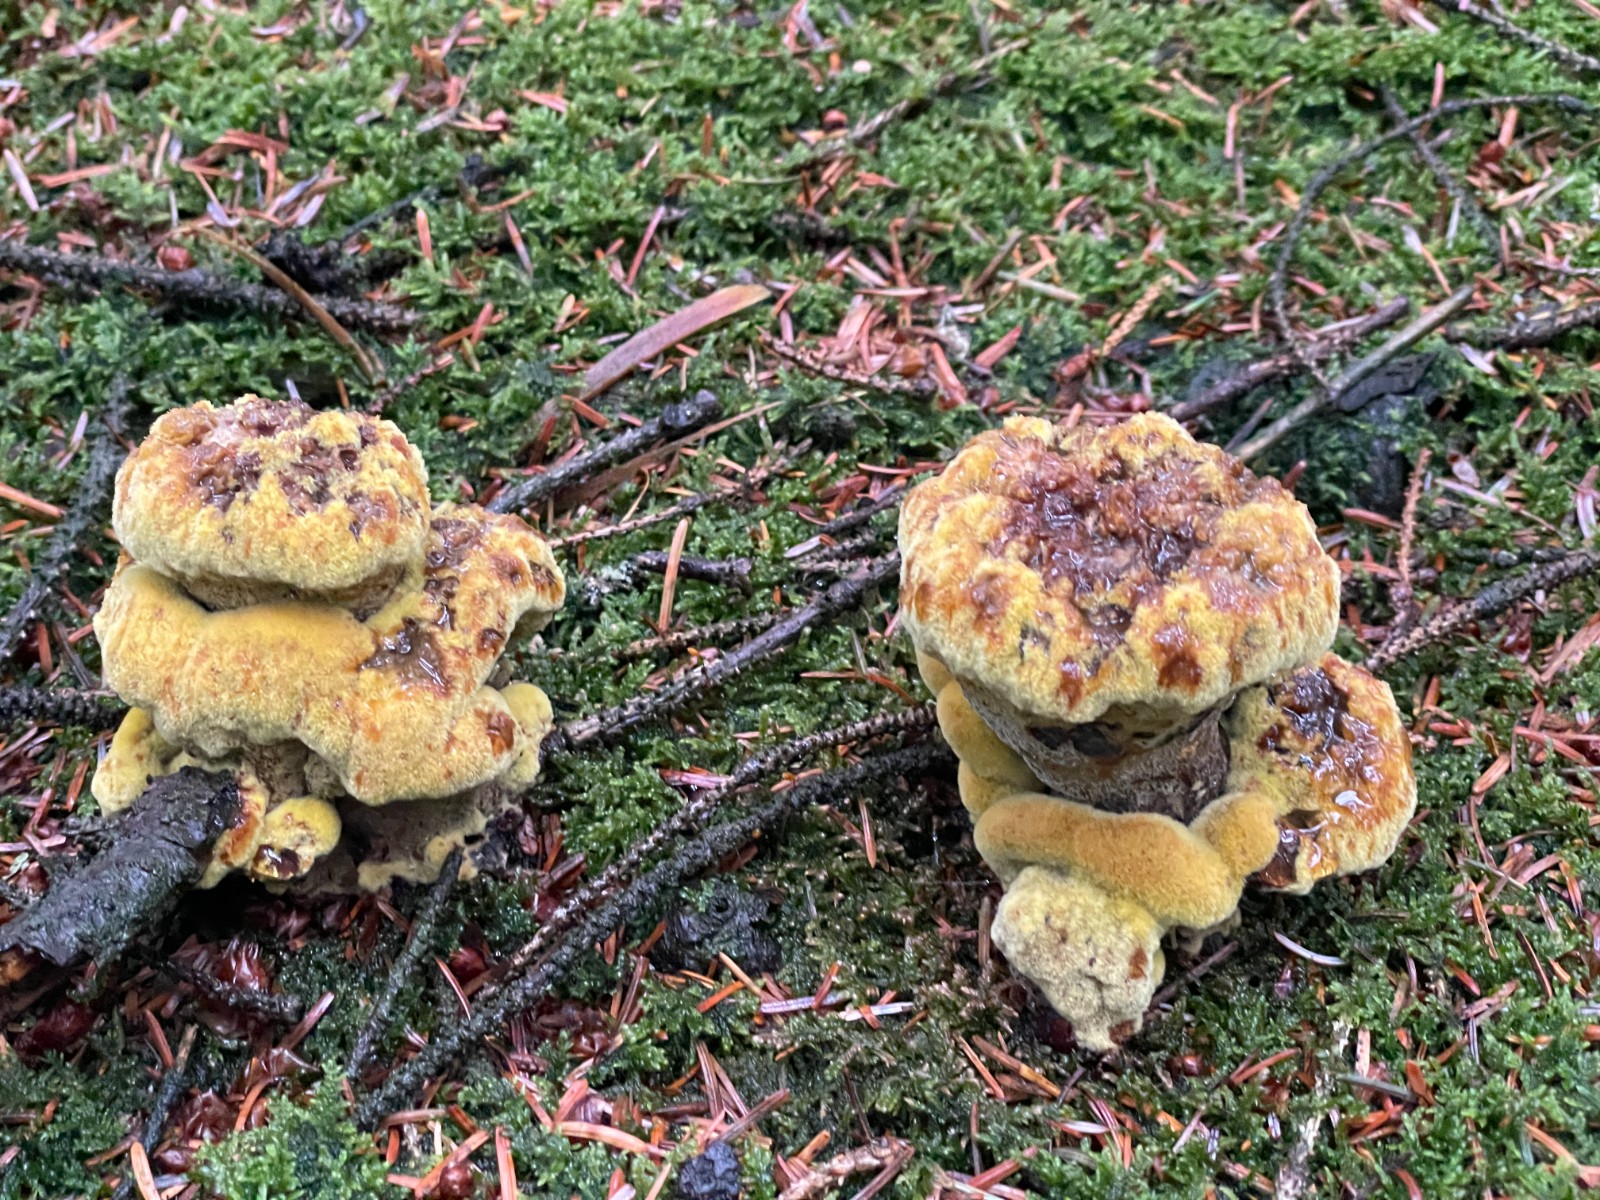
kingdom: Fungi
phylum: Basidiomycota
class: Agaricomycetes
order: Polyporales
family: Laetiporaceae
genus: Phaeolus
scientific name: Phaeolus schweinitzii
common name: brunporesvamp
